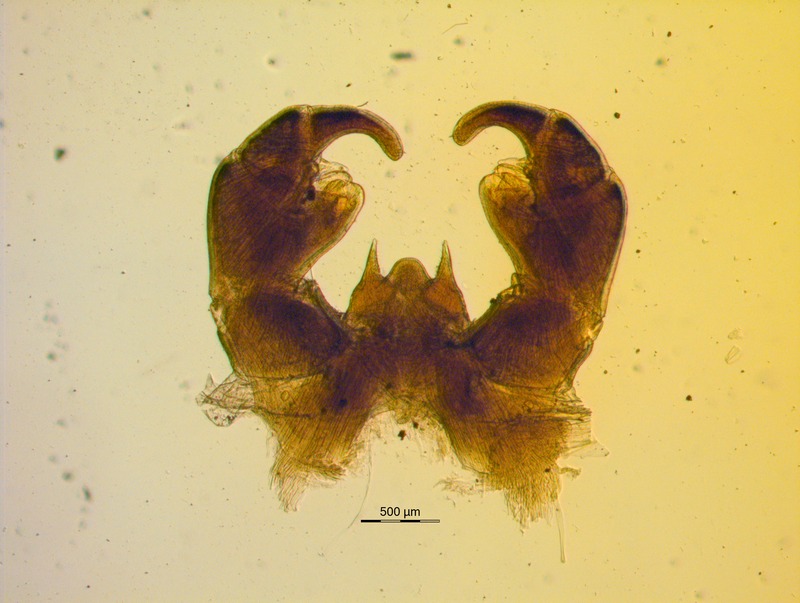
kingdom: Animalia
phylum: Arthropoda
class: Diplopoda
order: Glomerida
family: Glomeridae
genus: Onychoglomeris
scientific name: Onychoglomeris tirolensis
